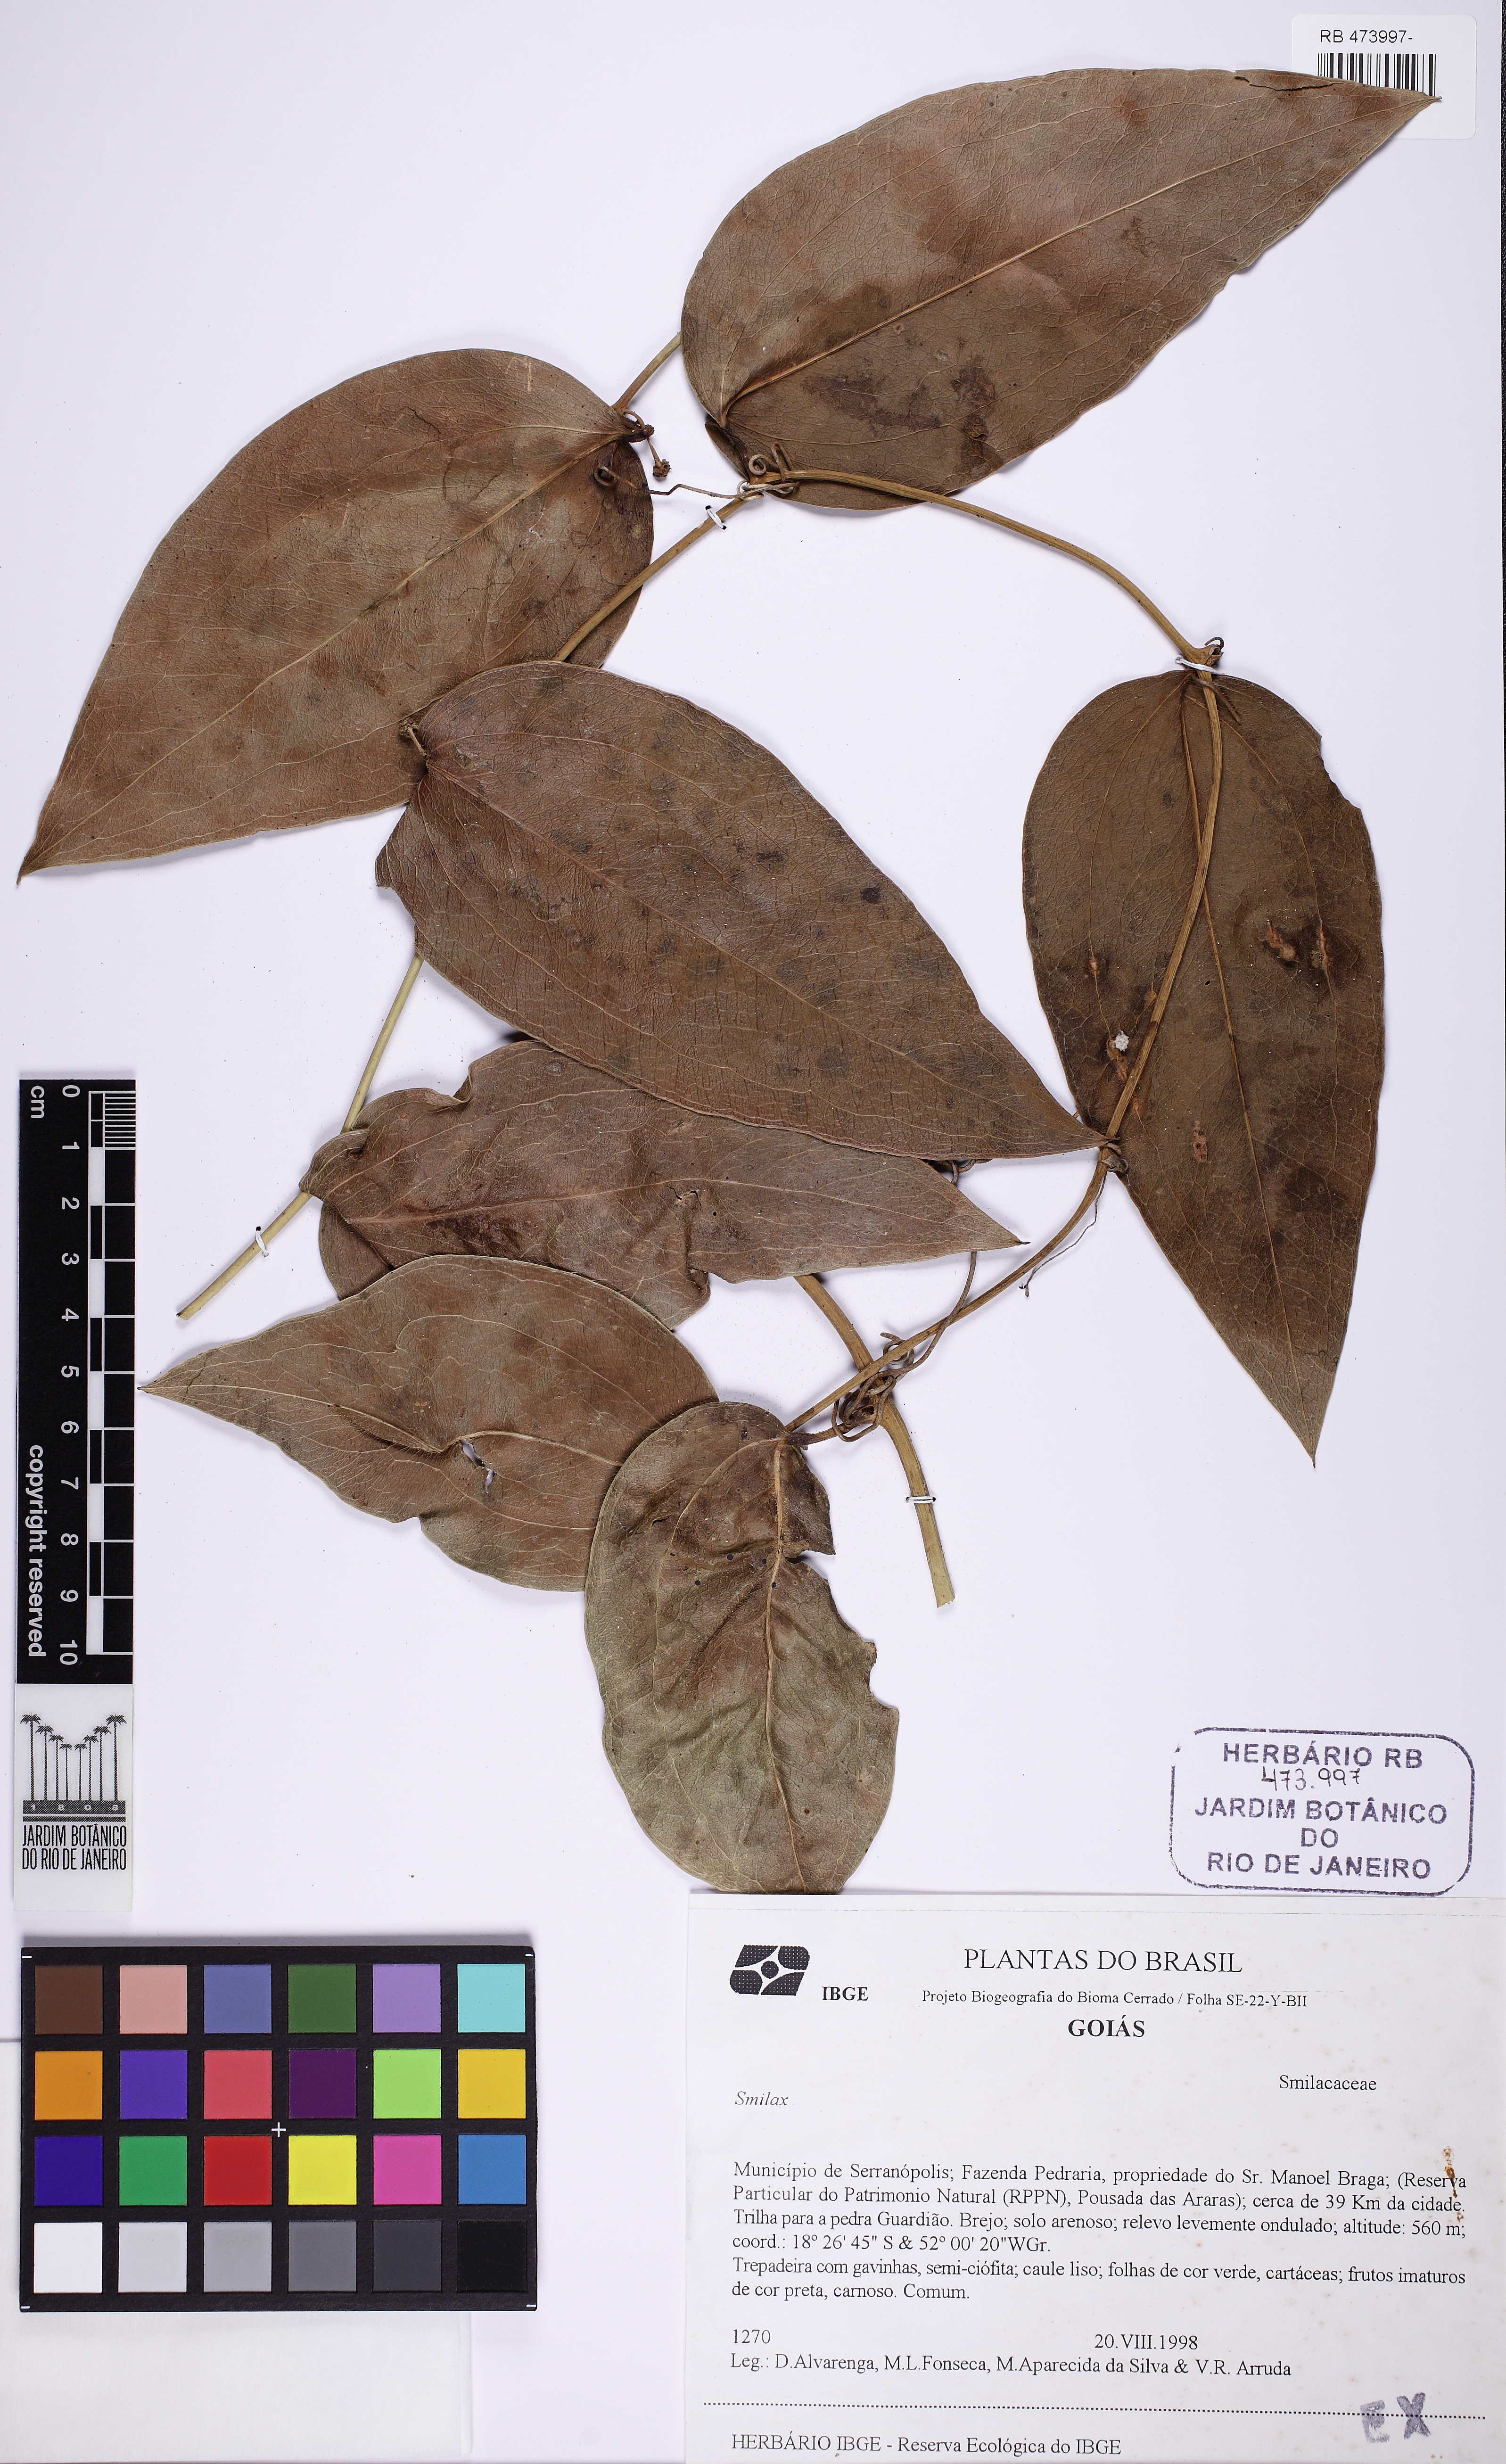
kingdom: Plantae
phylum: Tracheophyta
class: Liliopsida
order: Liliales
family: Smilacaceae
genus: Smilax
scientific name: Smilax
